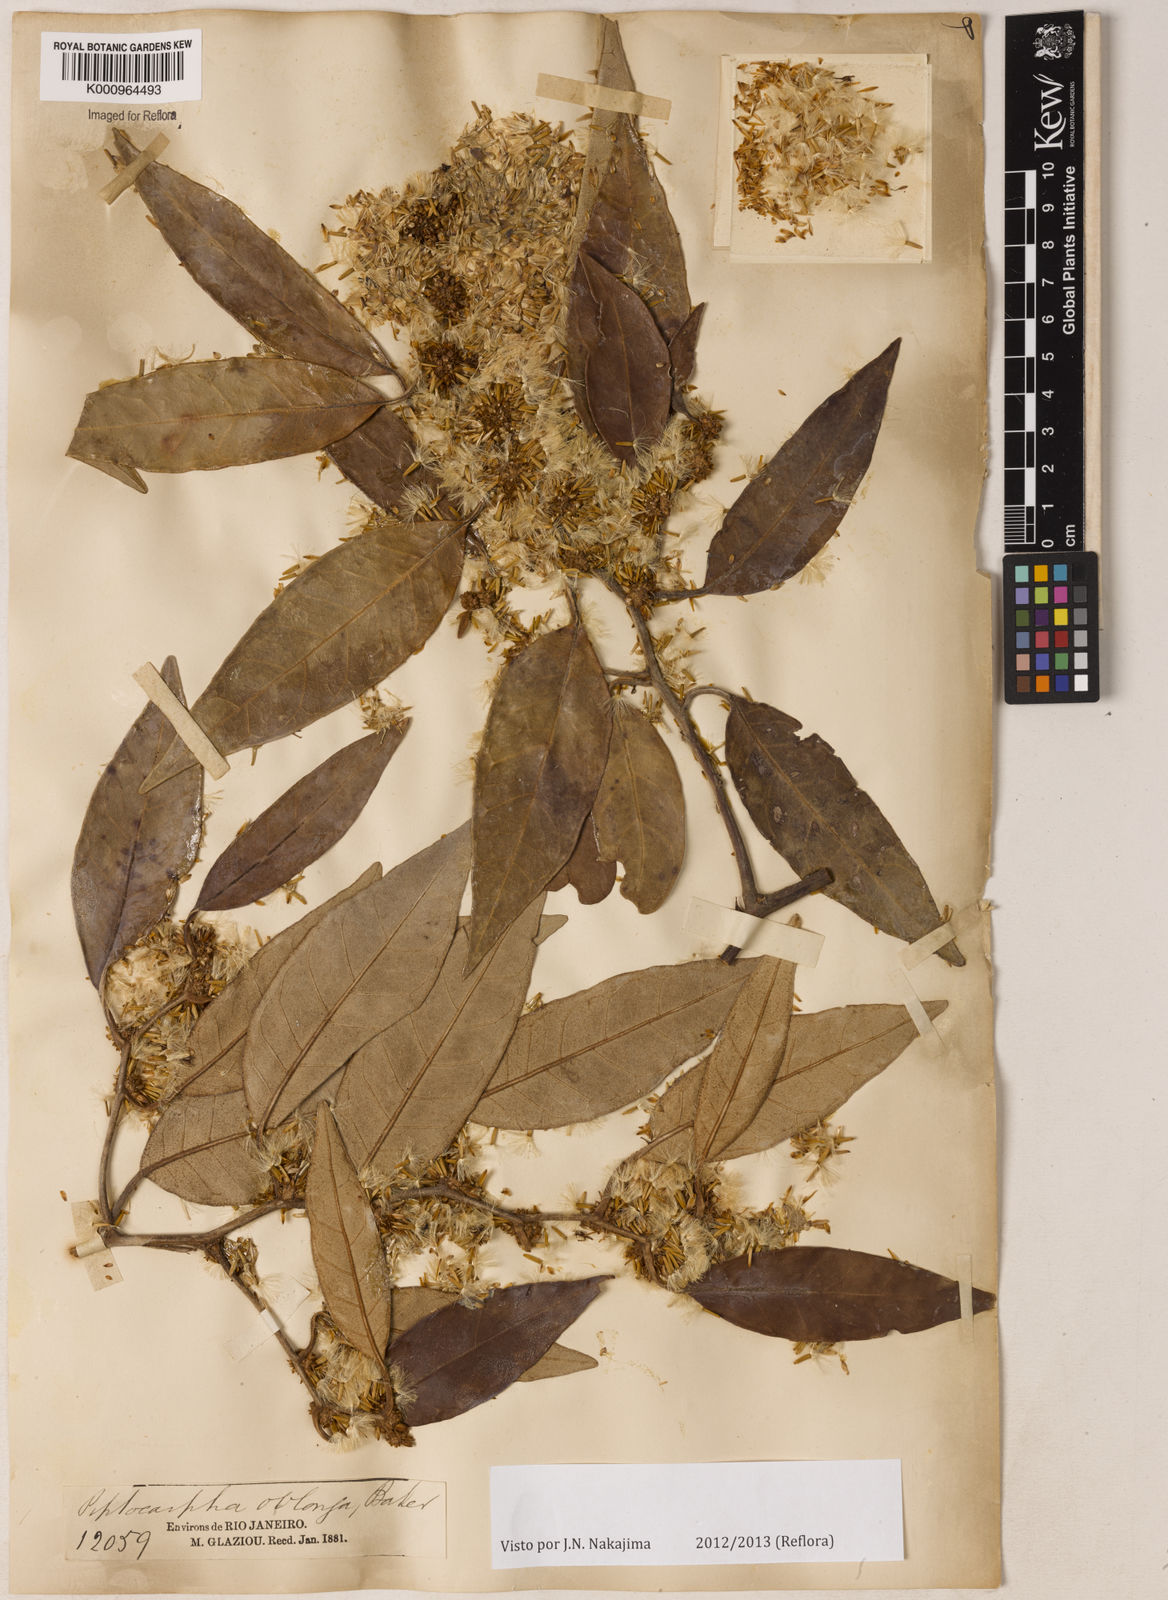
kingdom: Plantae
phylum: Tracheophyta
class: Magnoliopsida
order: Asterales
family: Asteraceae
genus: Piptocarpha
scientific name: Piptocarpha oblonga
